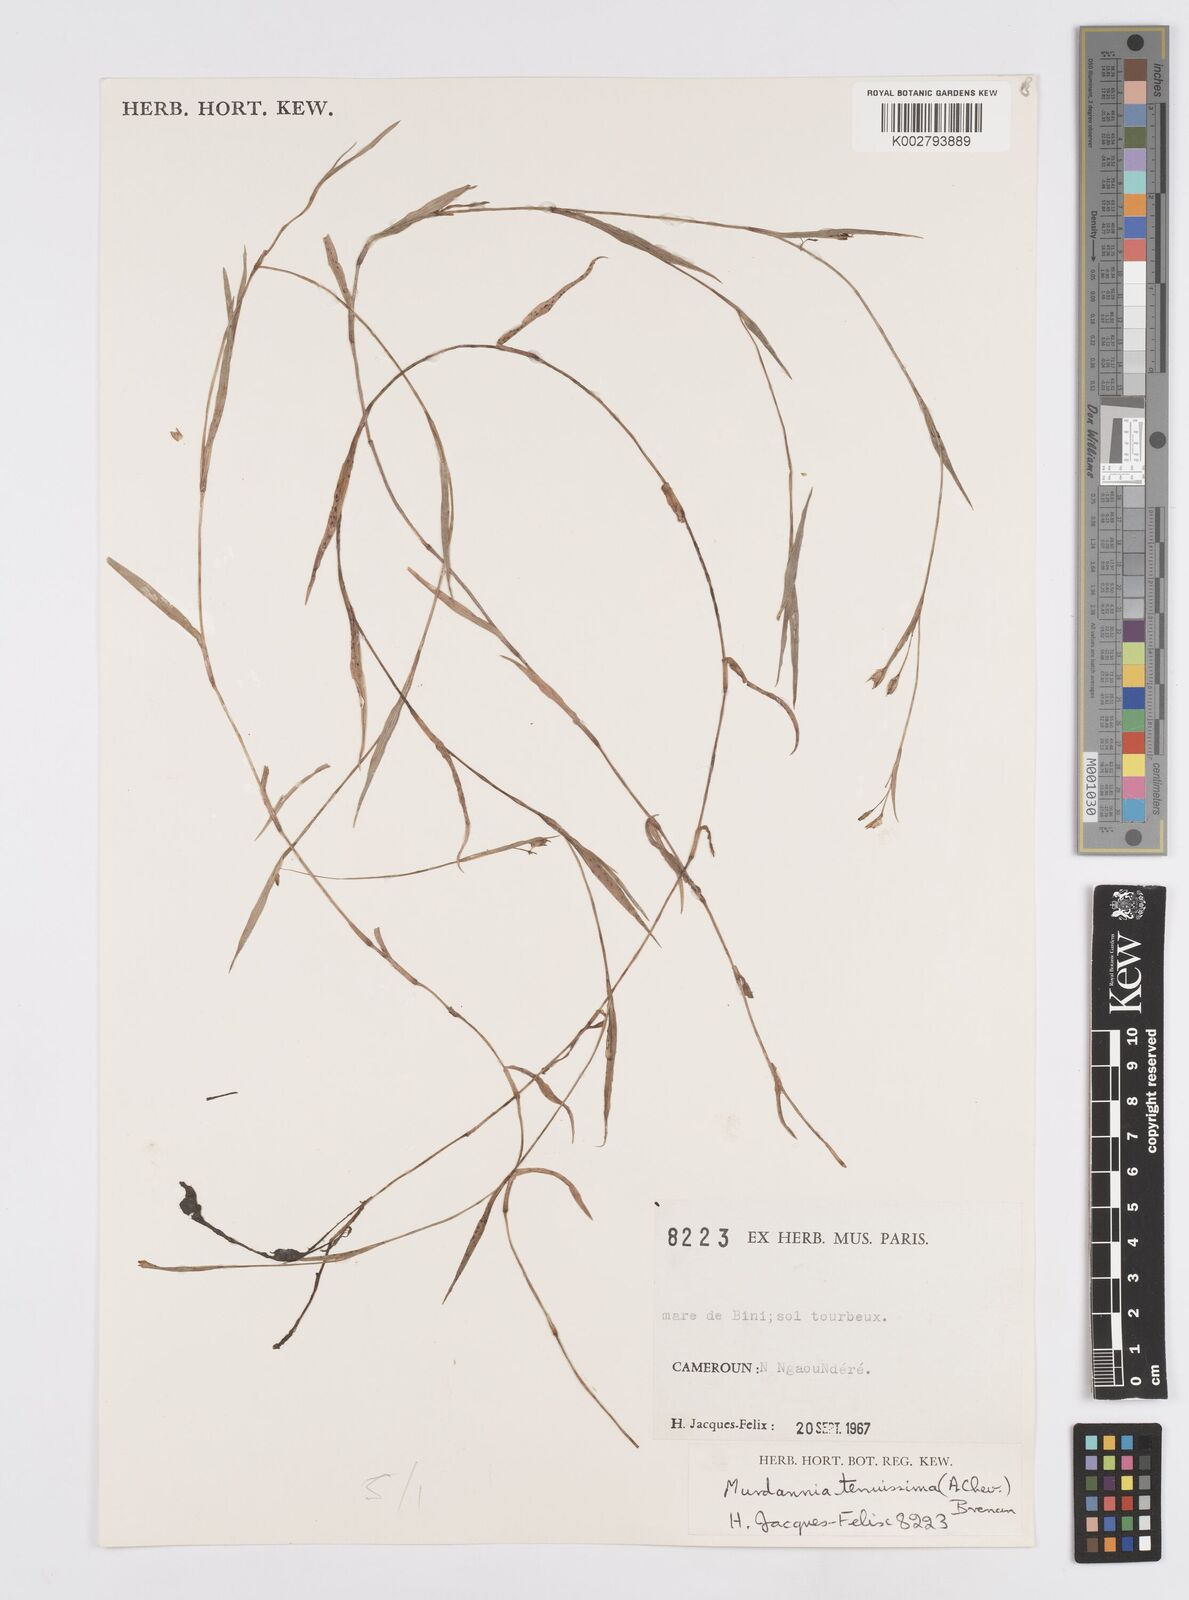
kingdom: Plantae
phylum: Tracheophyta
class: Liliopsida
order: Commelinales
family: Commelinaceae
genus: Murdannia
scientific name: Murdannia tenuissima
